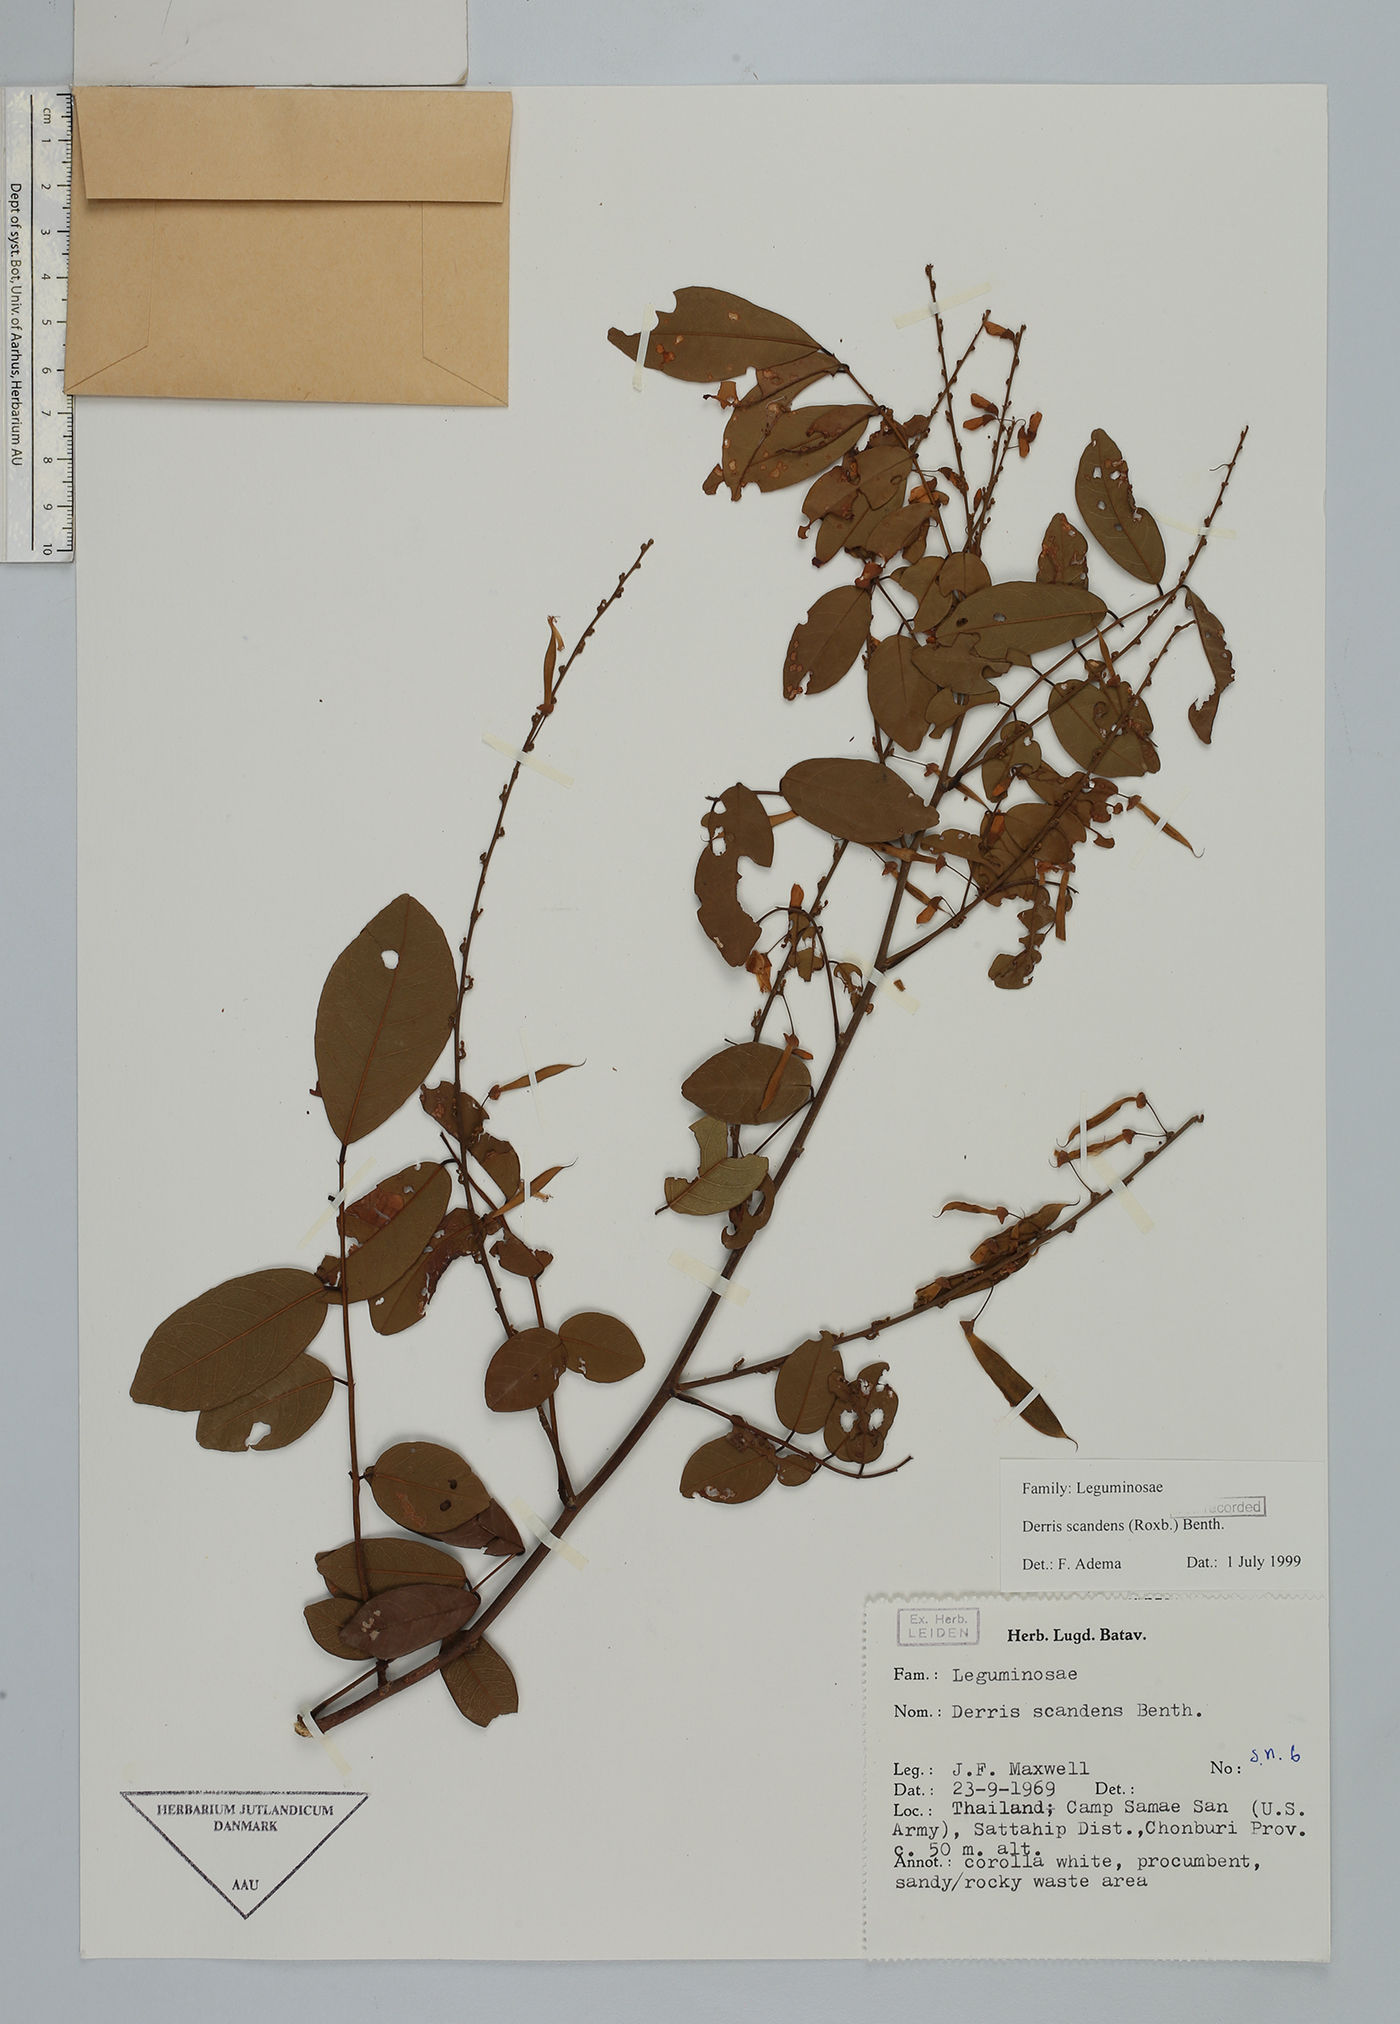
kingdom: Plantae
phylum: Tracheophyta
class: Magnoliopsida
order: Fabales
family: Fabaceae
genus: Brachypterum
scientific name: Brachypterum scandens
